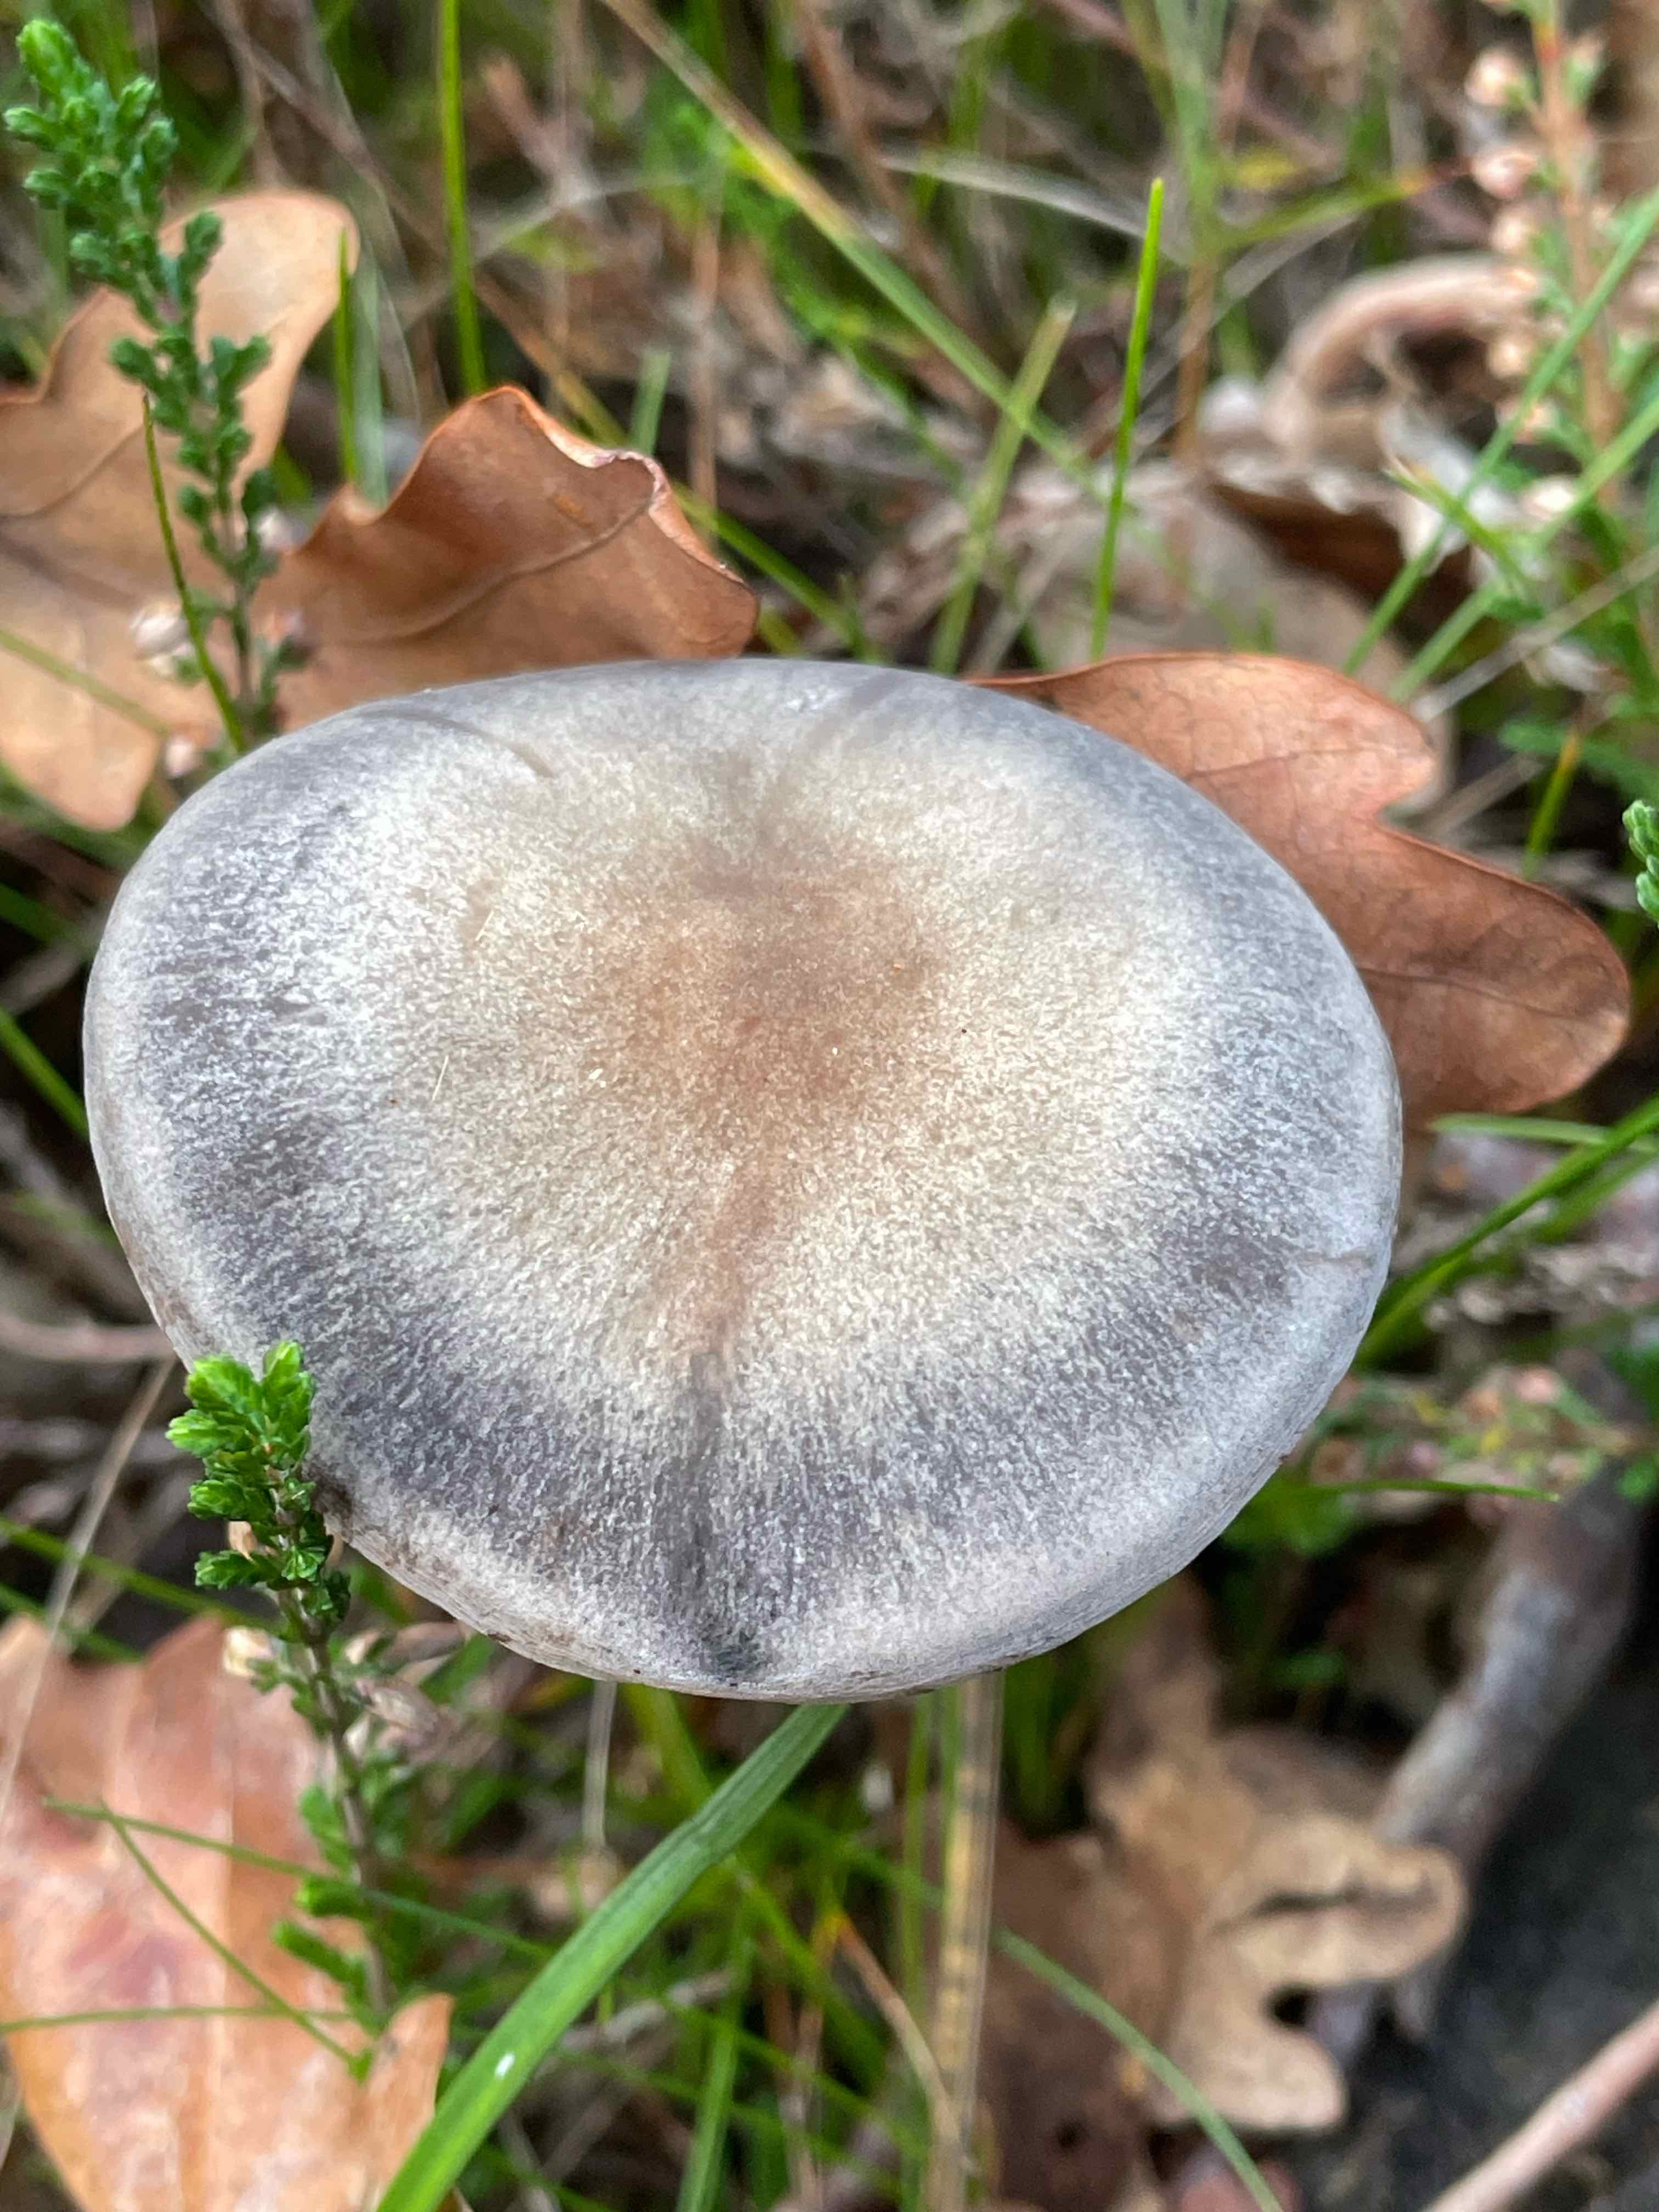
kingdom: Fungi
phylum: Basidiomycota
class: Agaricomycetes
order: Agaricales
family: Bolbitiaceae
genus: Panaeolus
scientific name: Panaeolus
